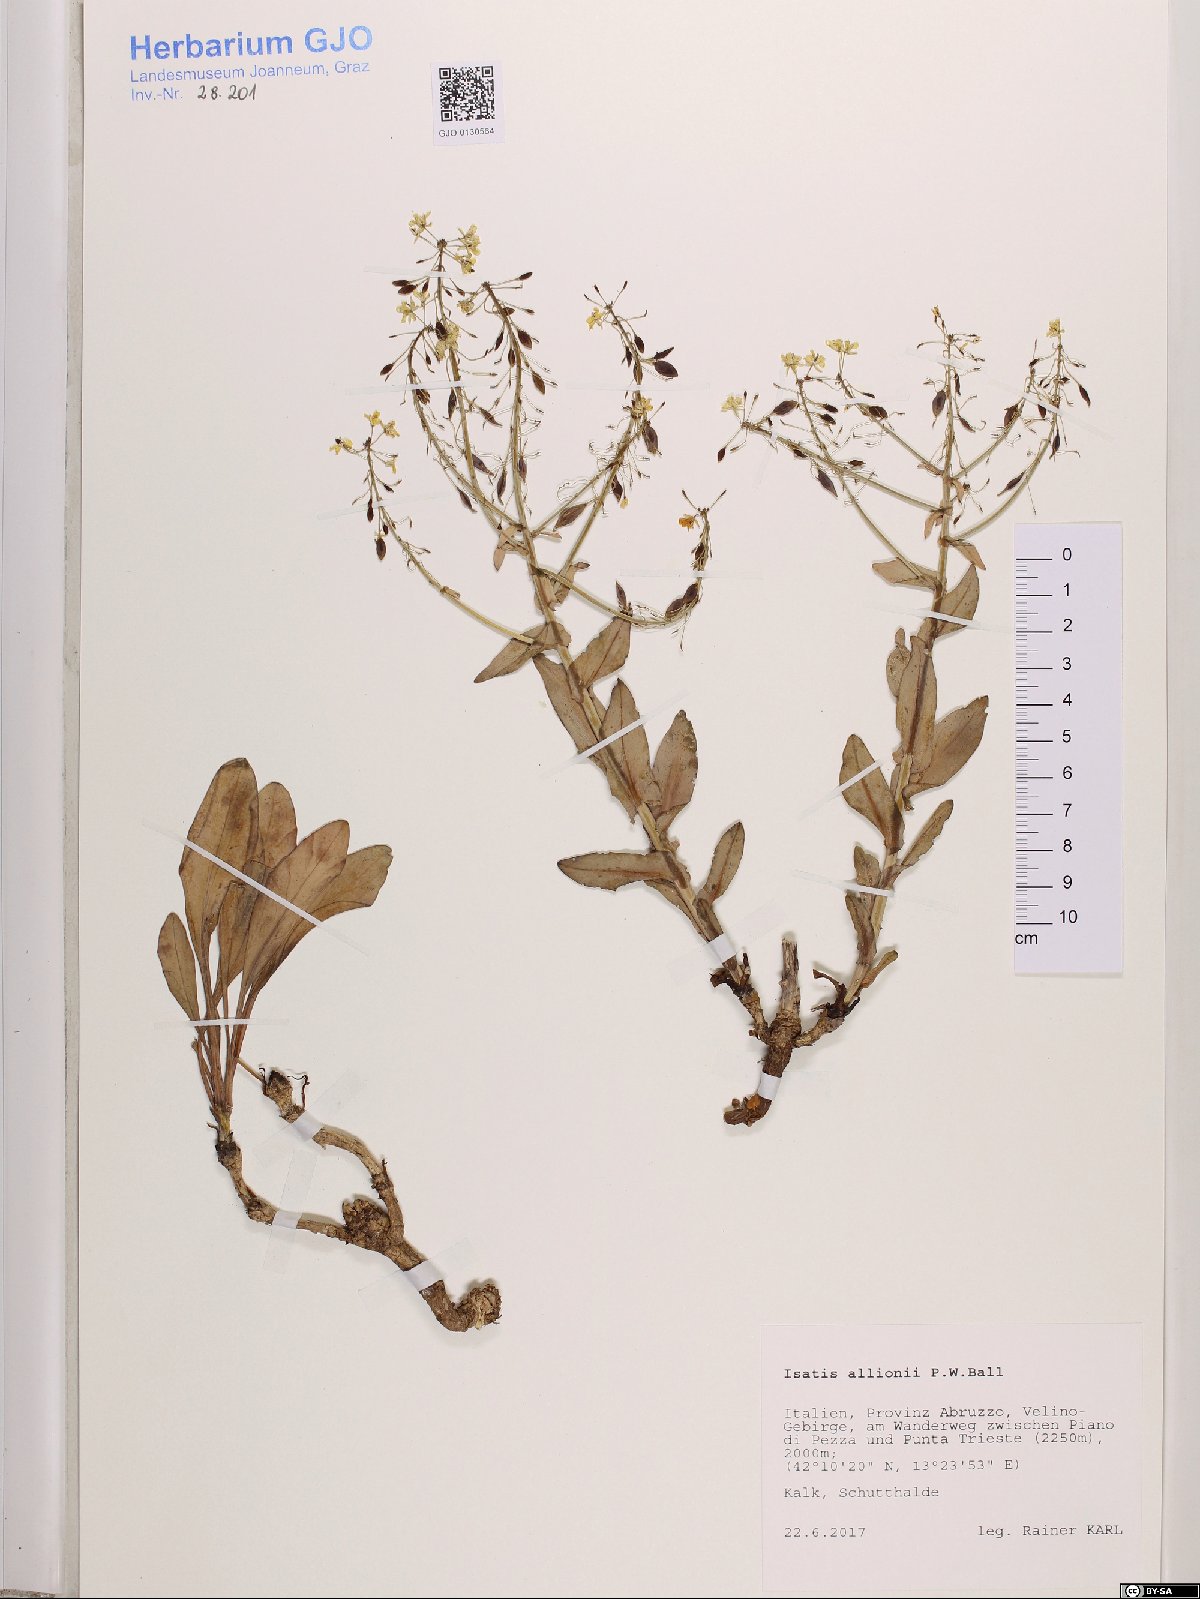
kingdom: Plantae
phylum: Tracheophyta
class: Magnoliopsida
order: Brassicales
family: Brassicaceae
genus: Isatis
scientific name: Isatis allionii
